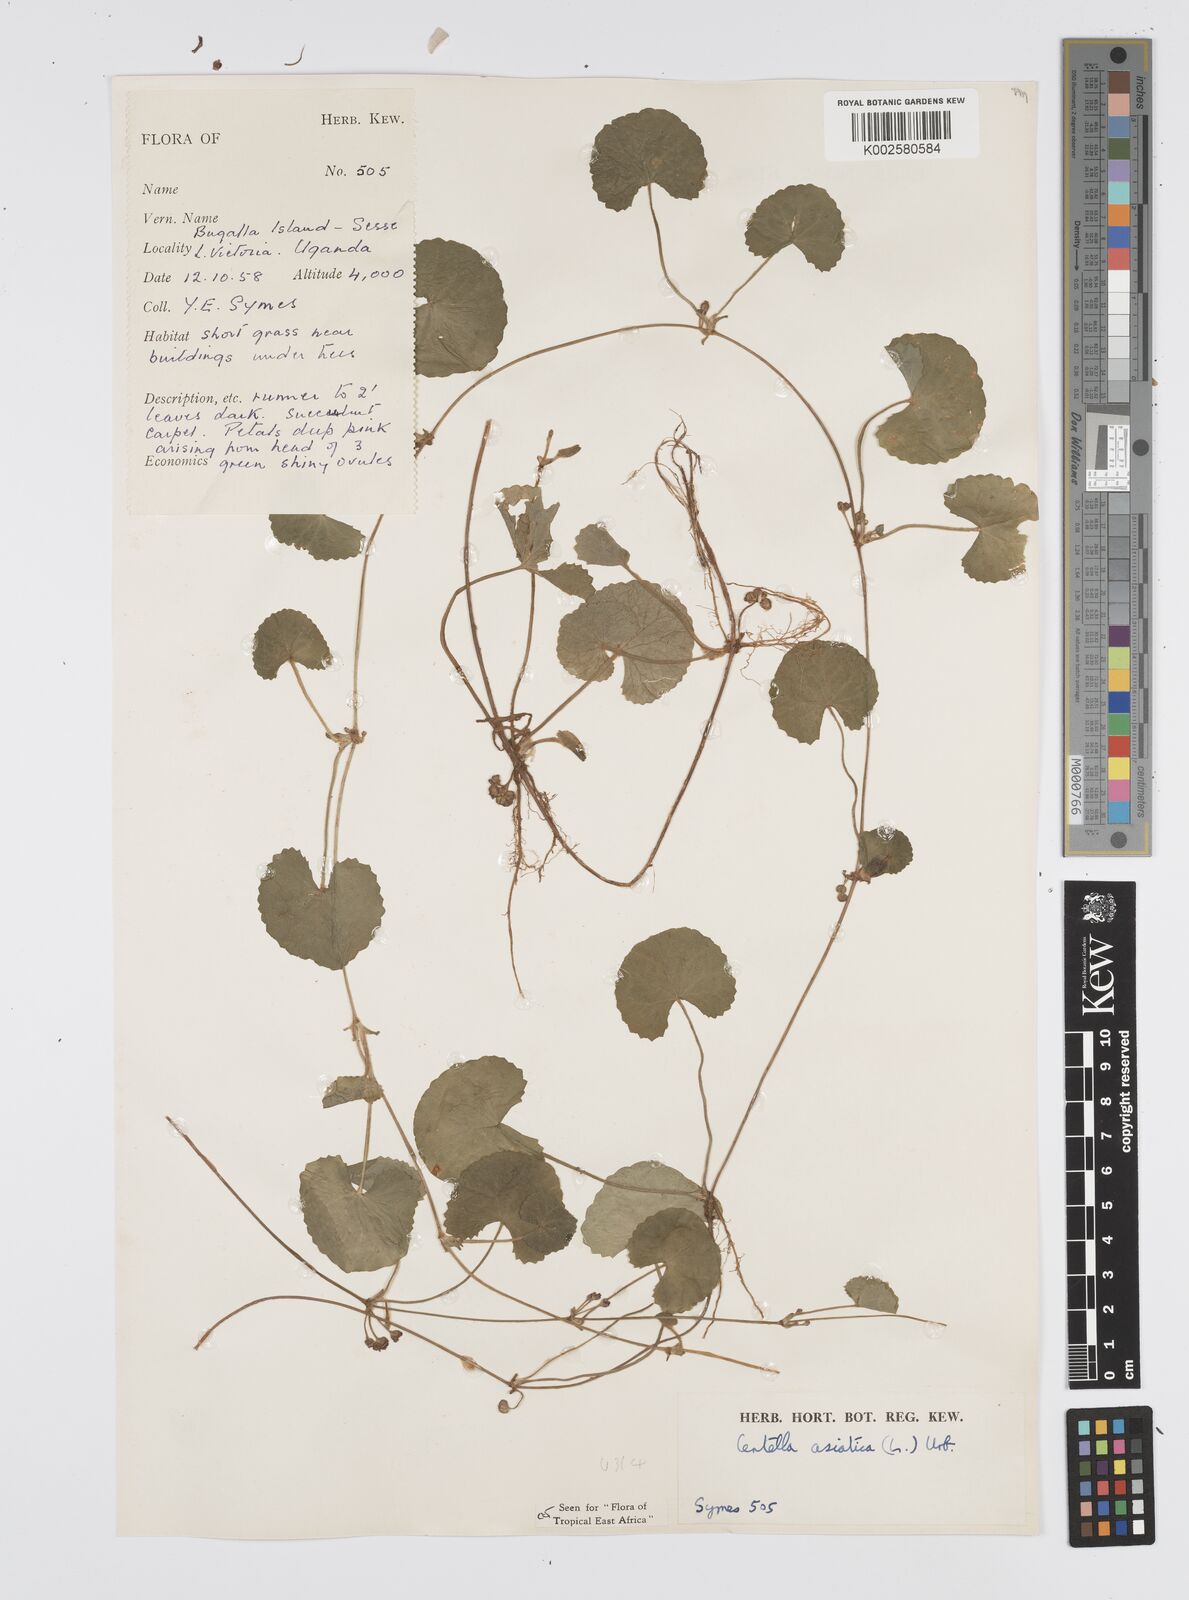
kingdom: Plantae
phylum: Tracheophyta
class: Magnoliopsida
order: Apiales
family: Apiaceae
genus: Centella
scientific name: Centella asiatica
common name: Spadeleaf
